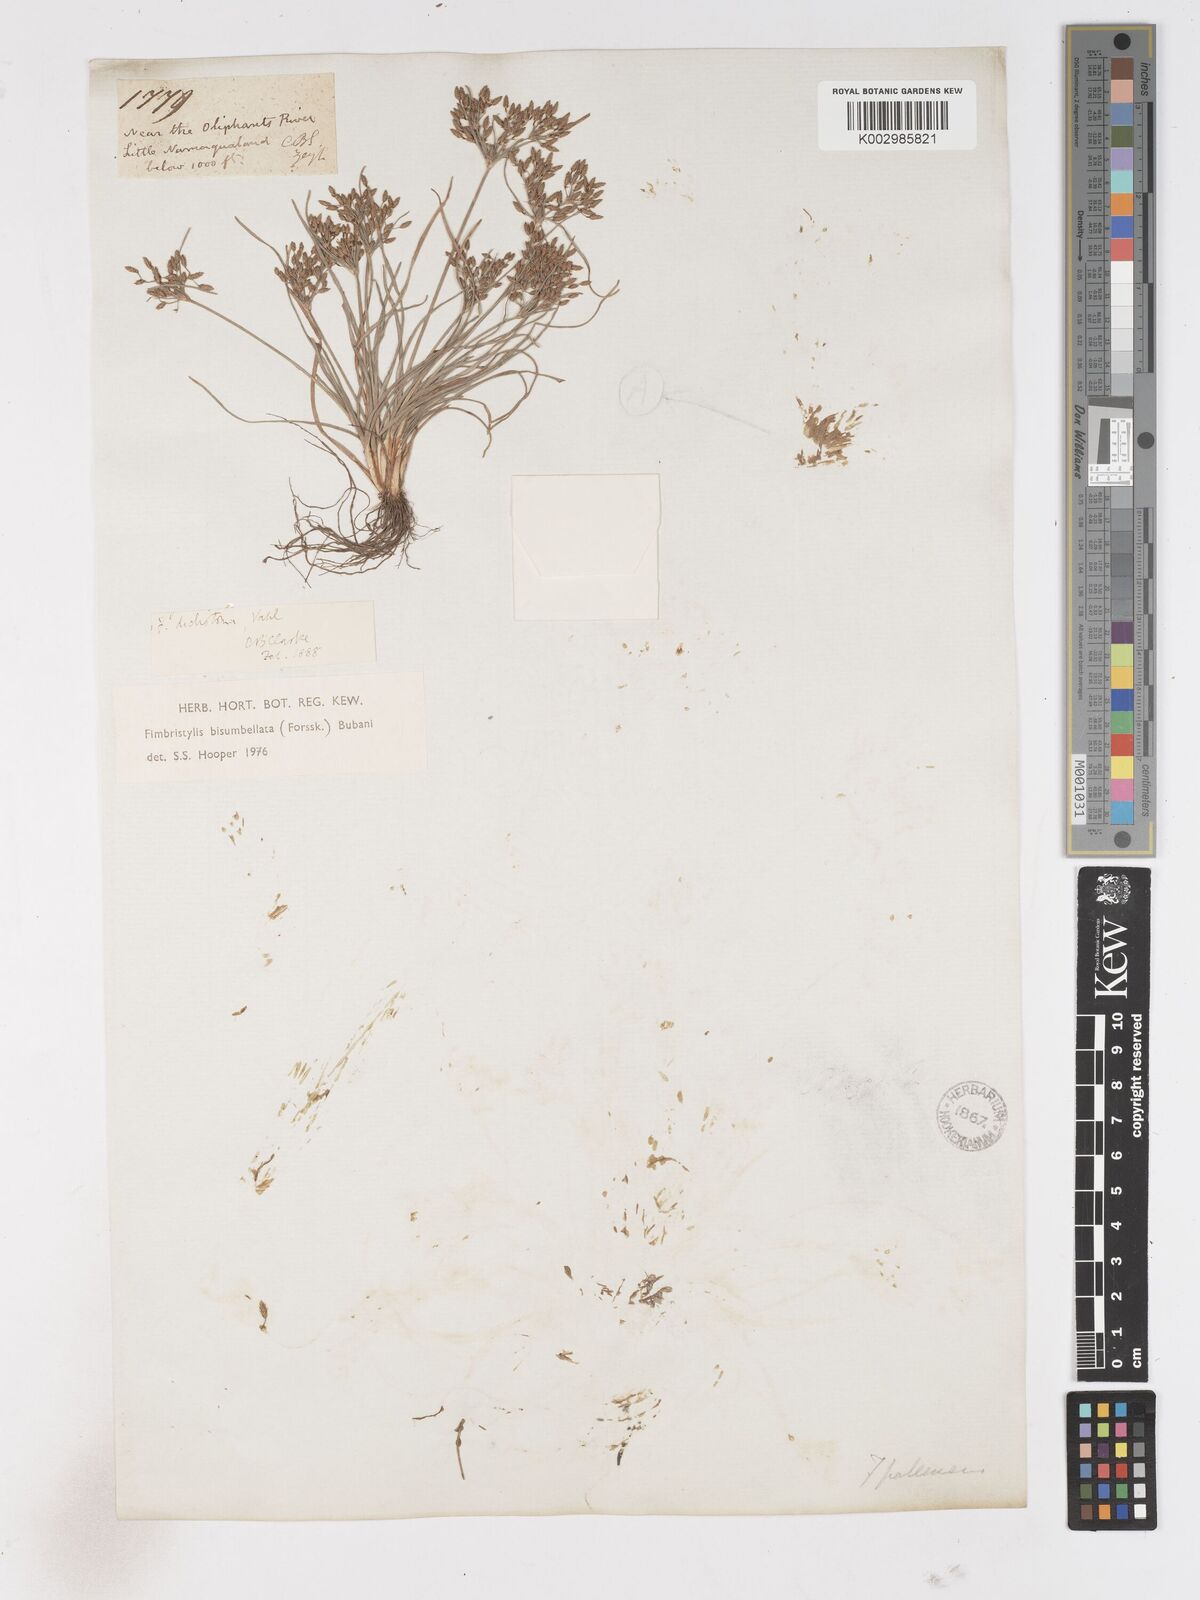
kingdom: Plantae
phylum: Tracheophyta
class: Liliopsida
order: Poales
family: Cyperaceae
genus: Fimbristylis
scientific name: Fimbristylis bisumbellata
